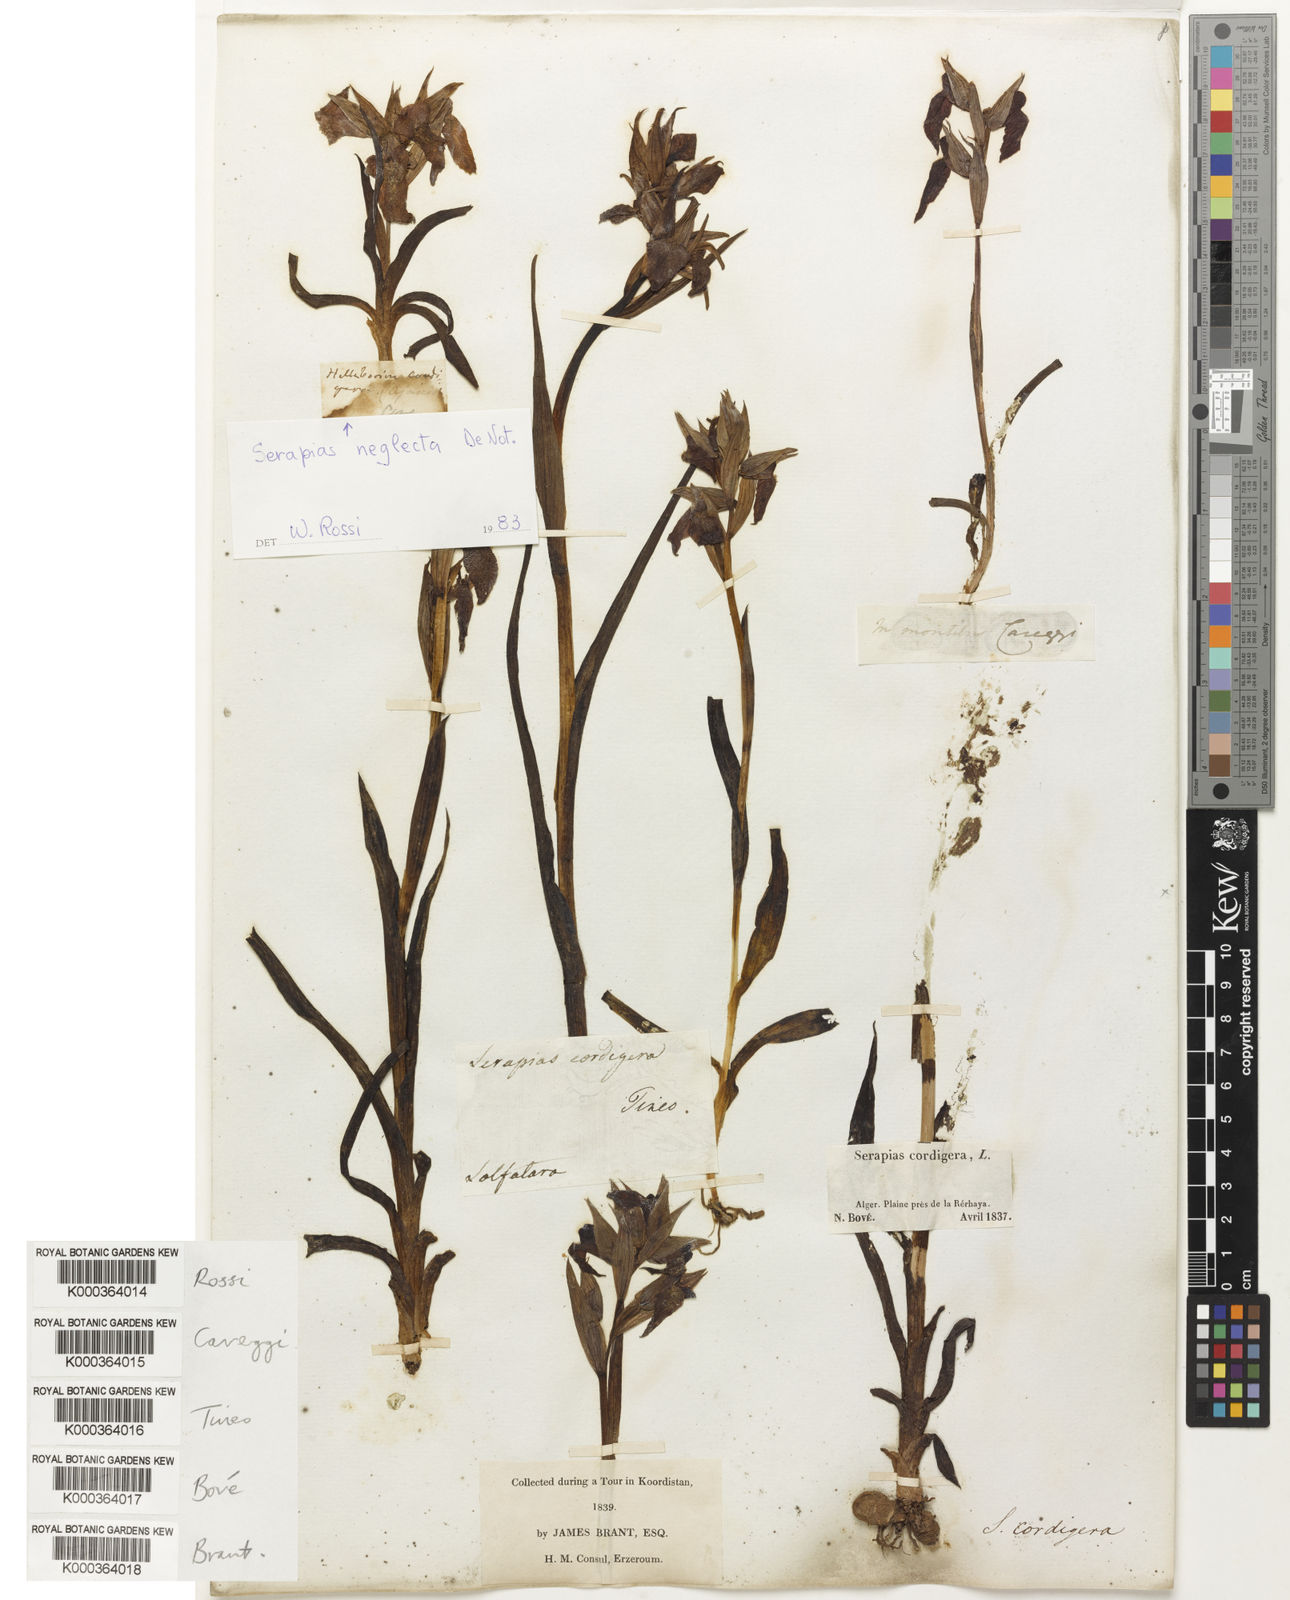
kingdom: Plantae
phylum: Tracheophyta
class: Liliopsida
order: Asparagales
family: Orchidaceae
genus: Serapias
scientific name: Serapias neglecta
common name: Neglected serapias
